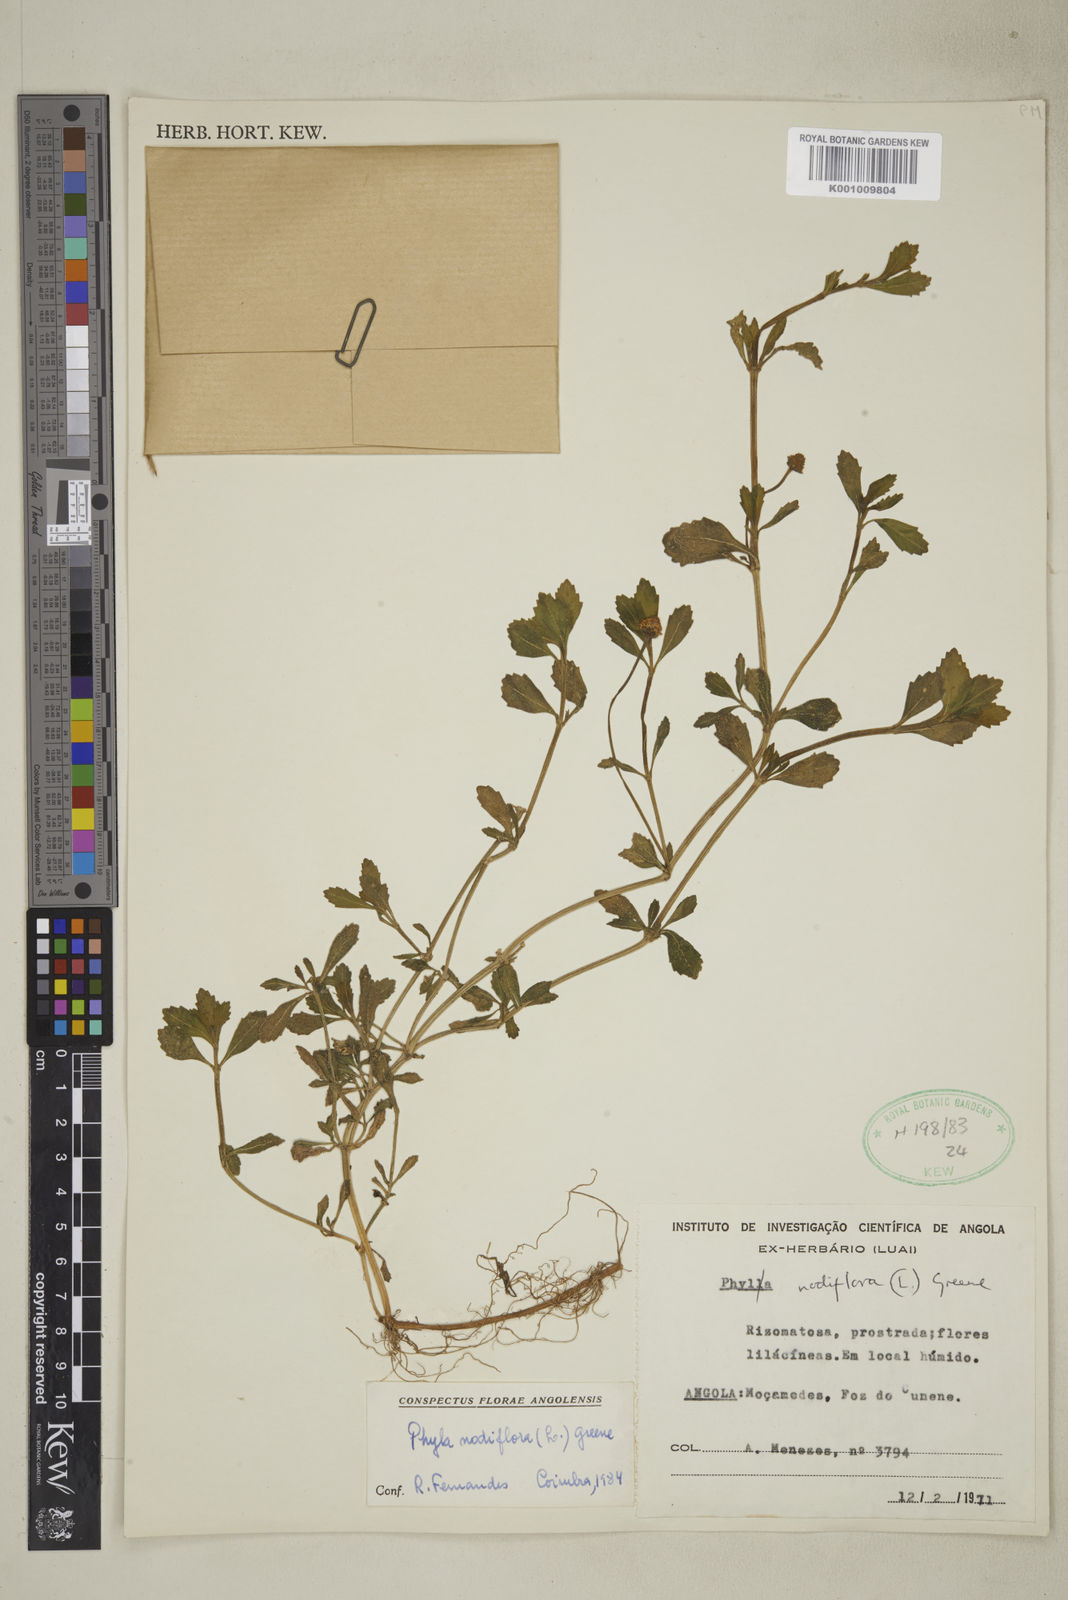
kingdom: Plantae
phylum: Tracheophyta
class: Magnoliopsida
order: Lamiales
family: Verbenaceae
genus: Phyla
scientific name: Phyla nodiflora
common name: Frogfruit
